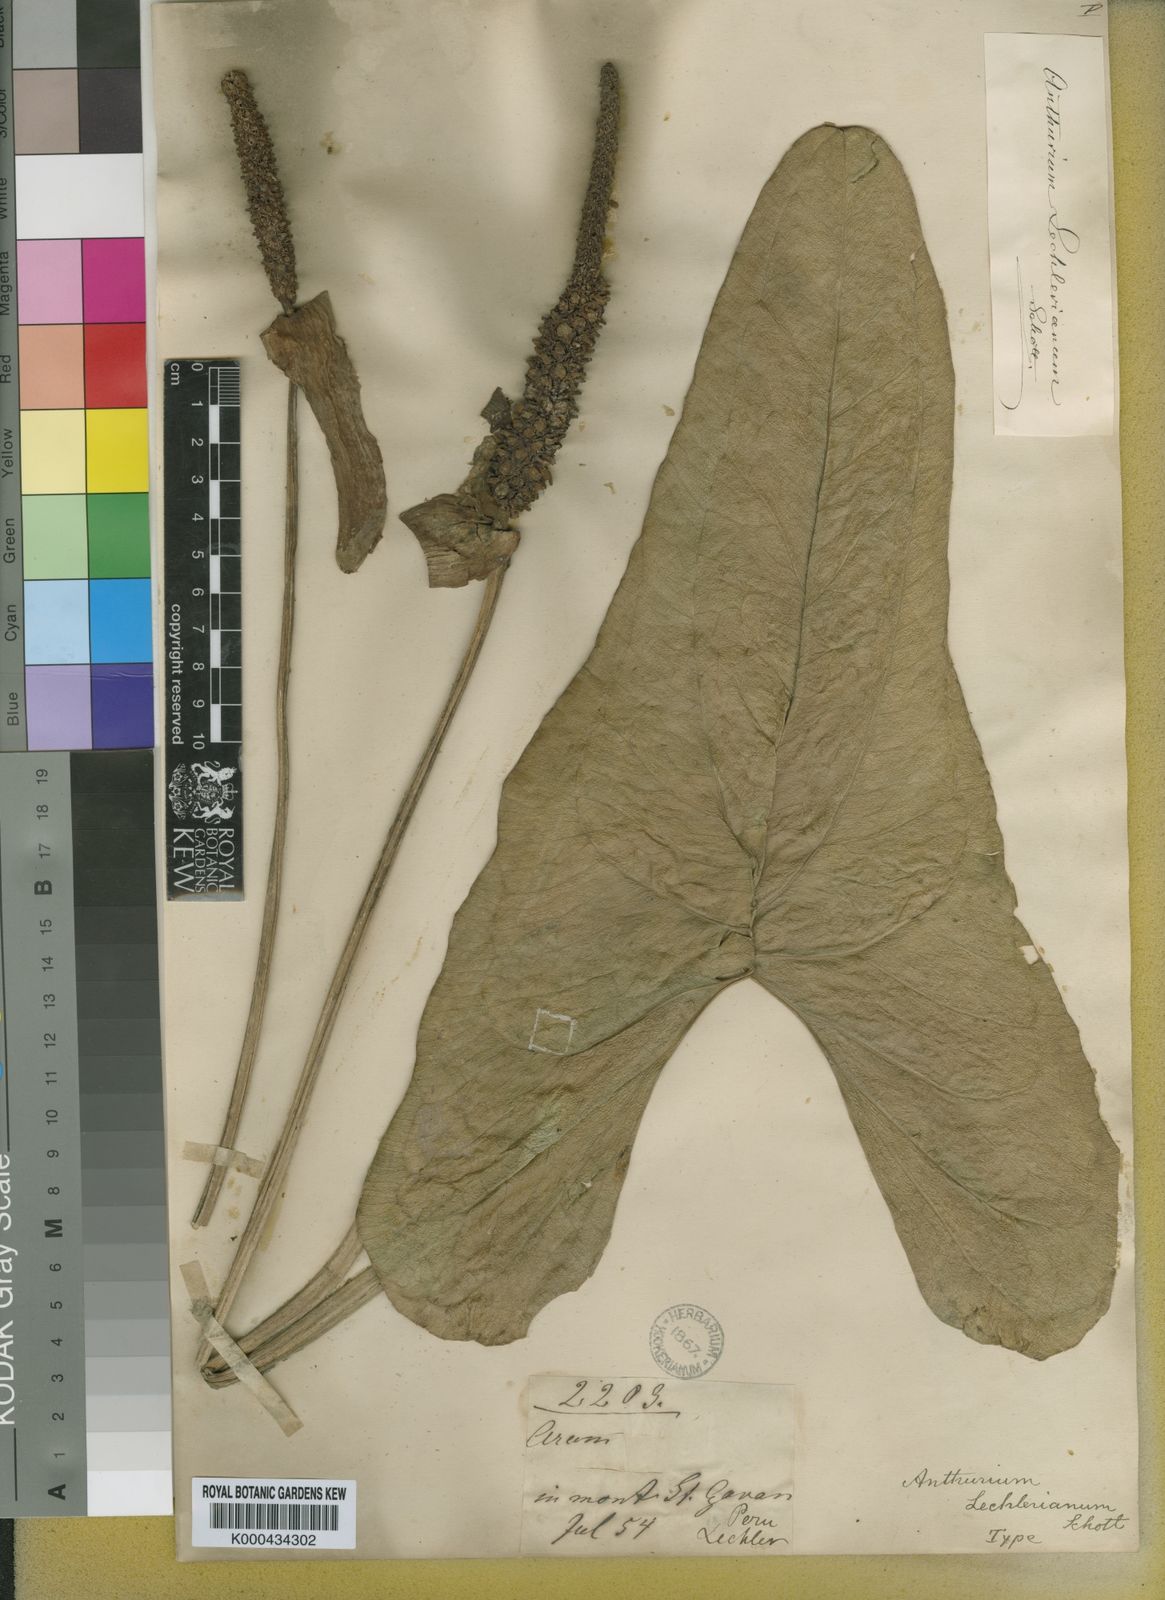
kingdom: Plantae
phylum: Tracheophyta
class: Liliopsida
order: Alismatales
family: Araceae
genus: Anthurium
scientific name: Anthurium lechlerianum
